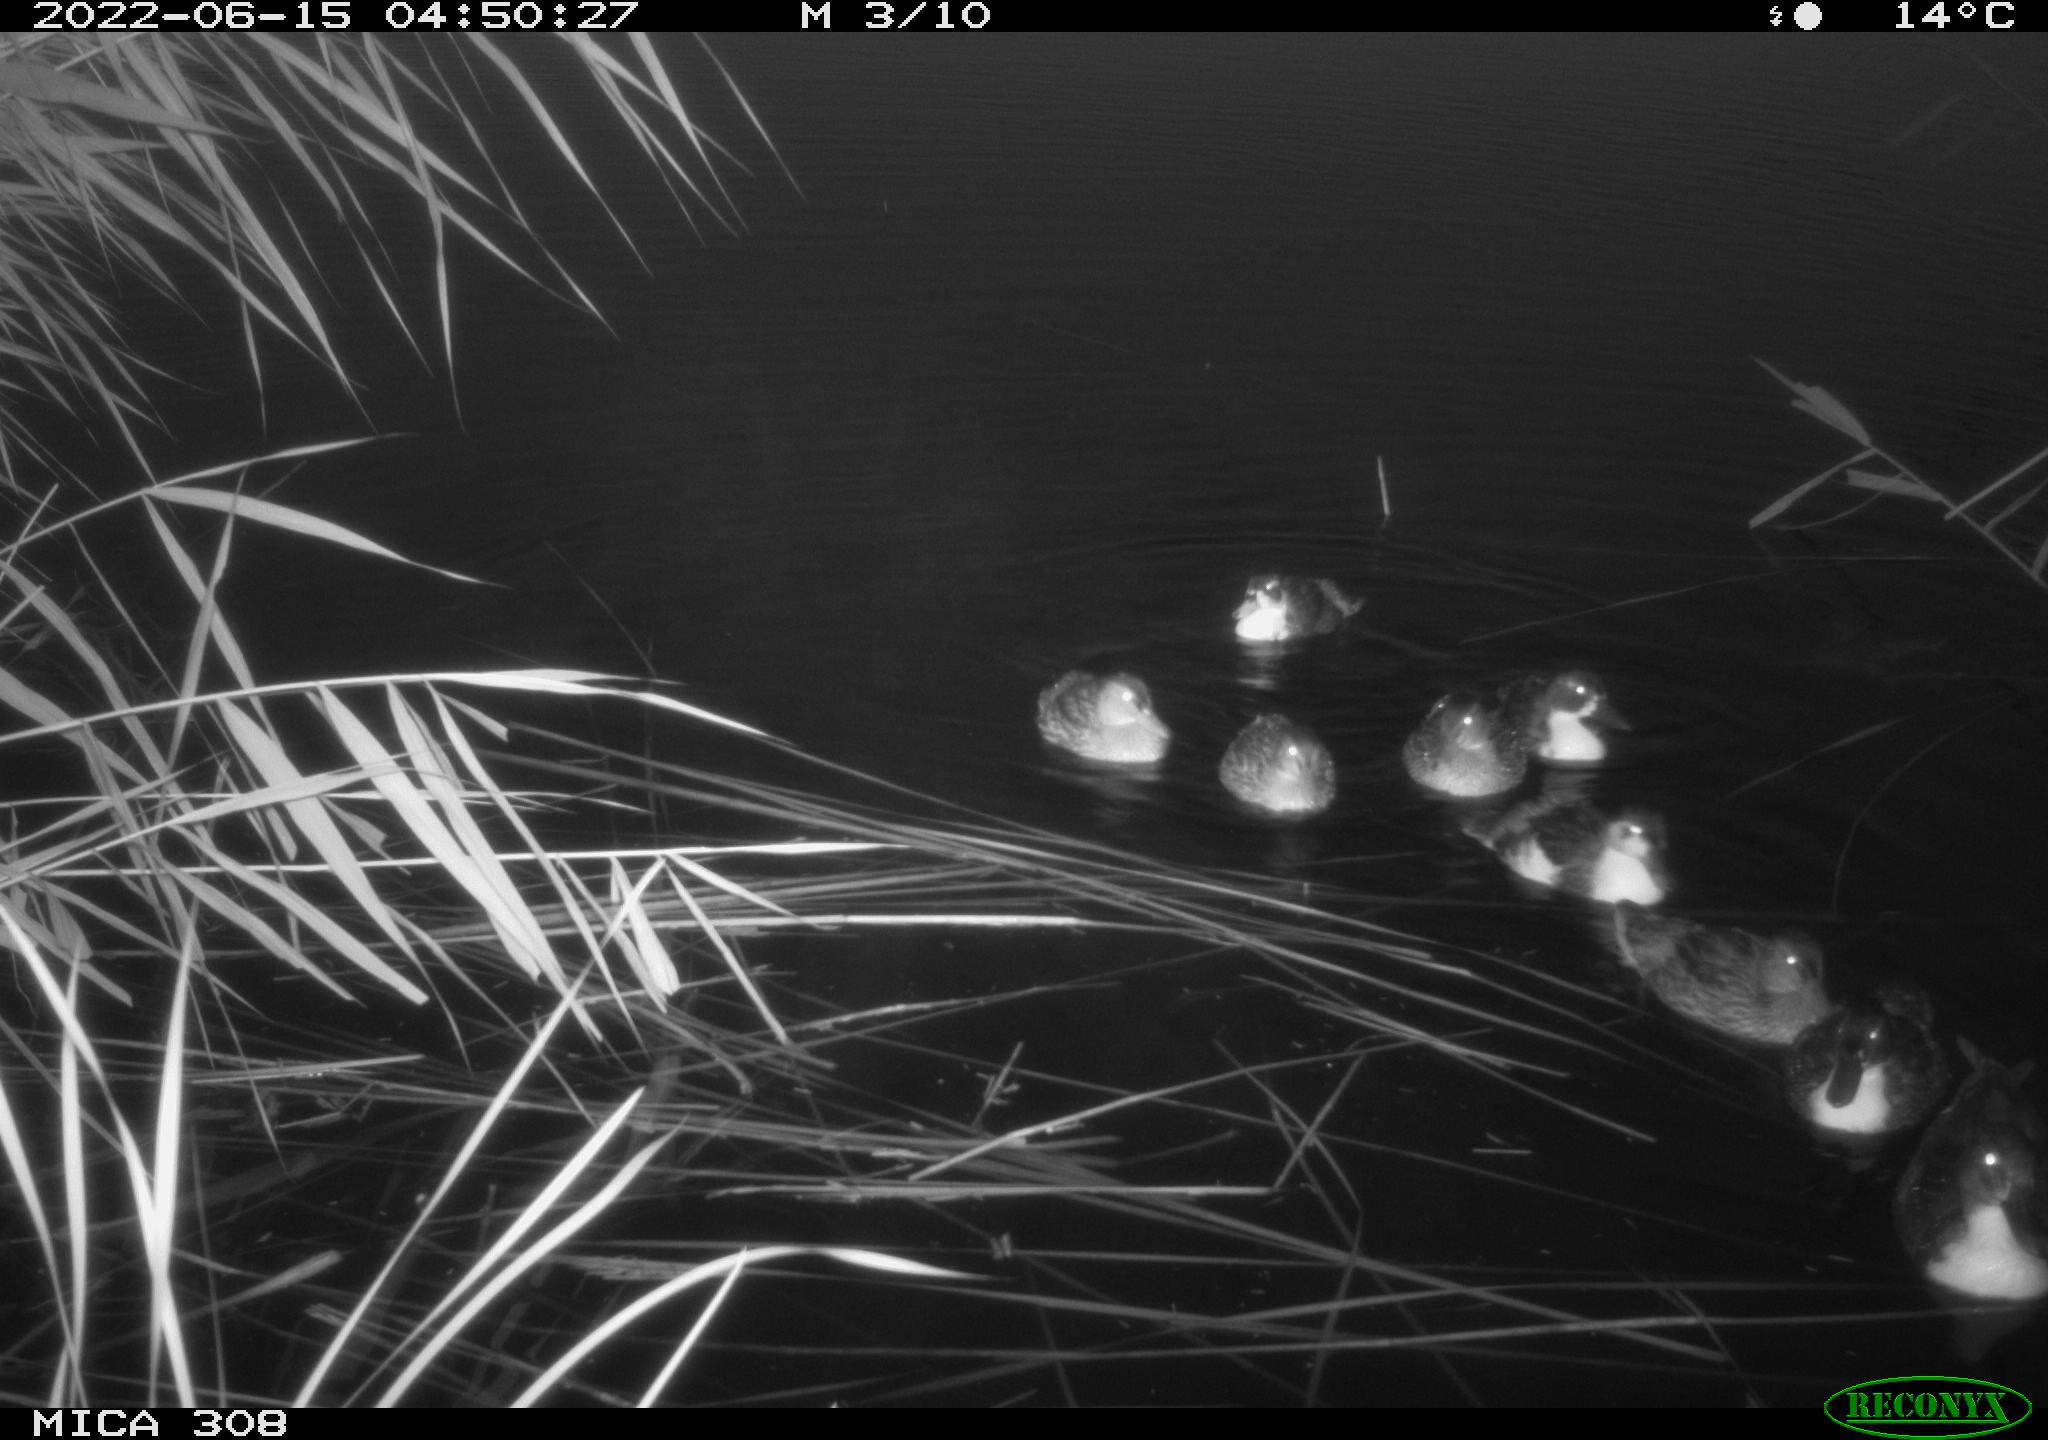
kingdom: Animalia
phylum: Chordata
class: Aves
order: Anseriformes
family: Anatidae
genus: Anas
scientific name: Anas platyrhynchos
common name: Mallard
